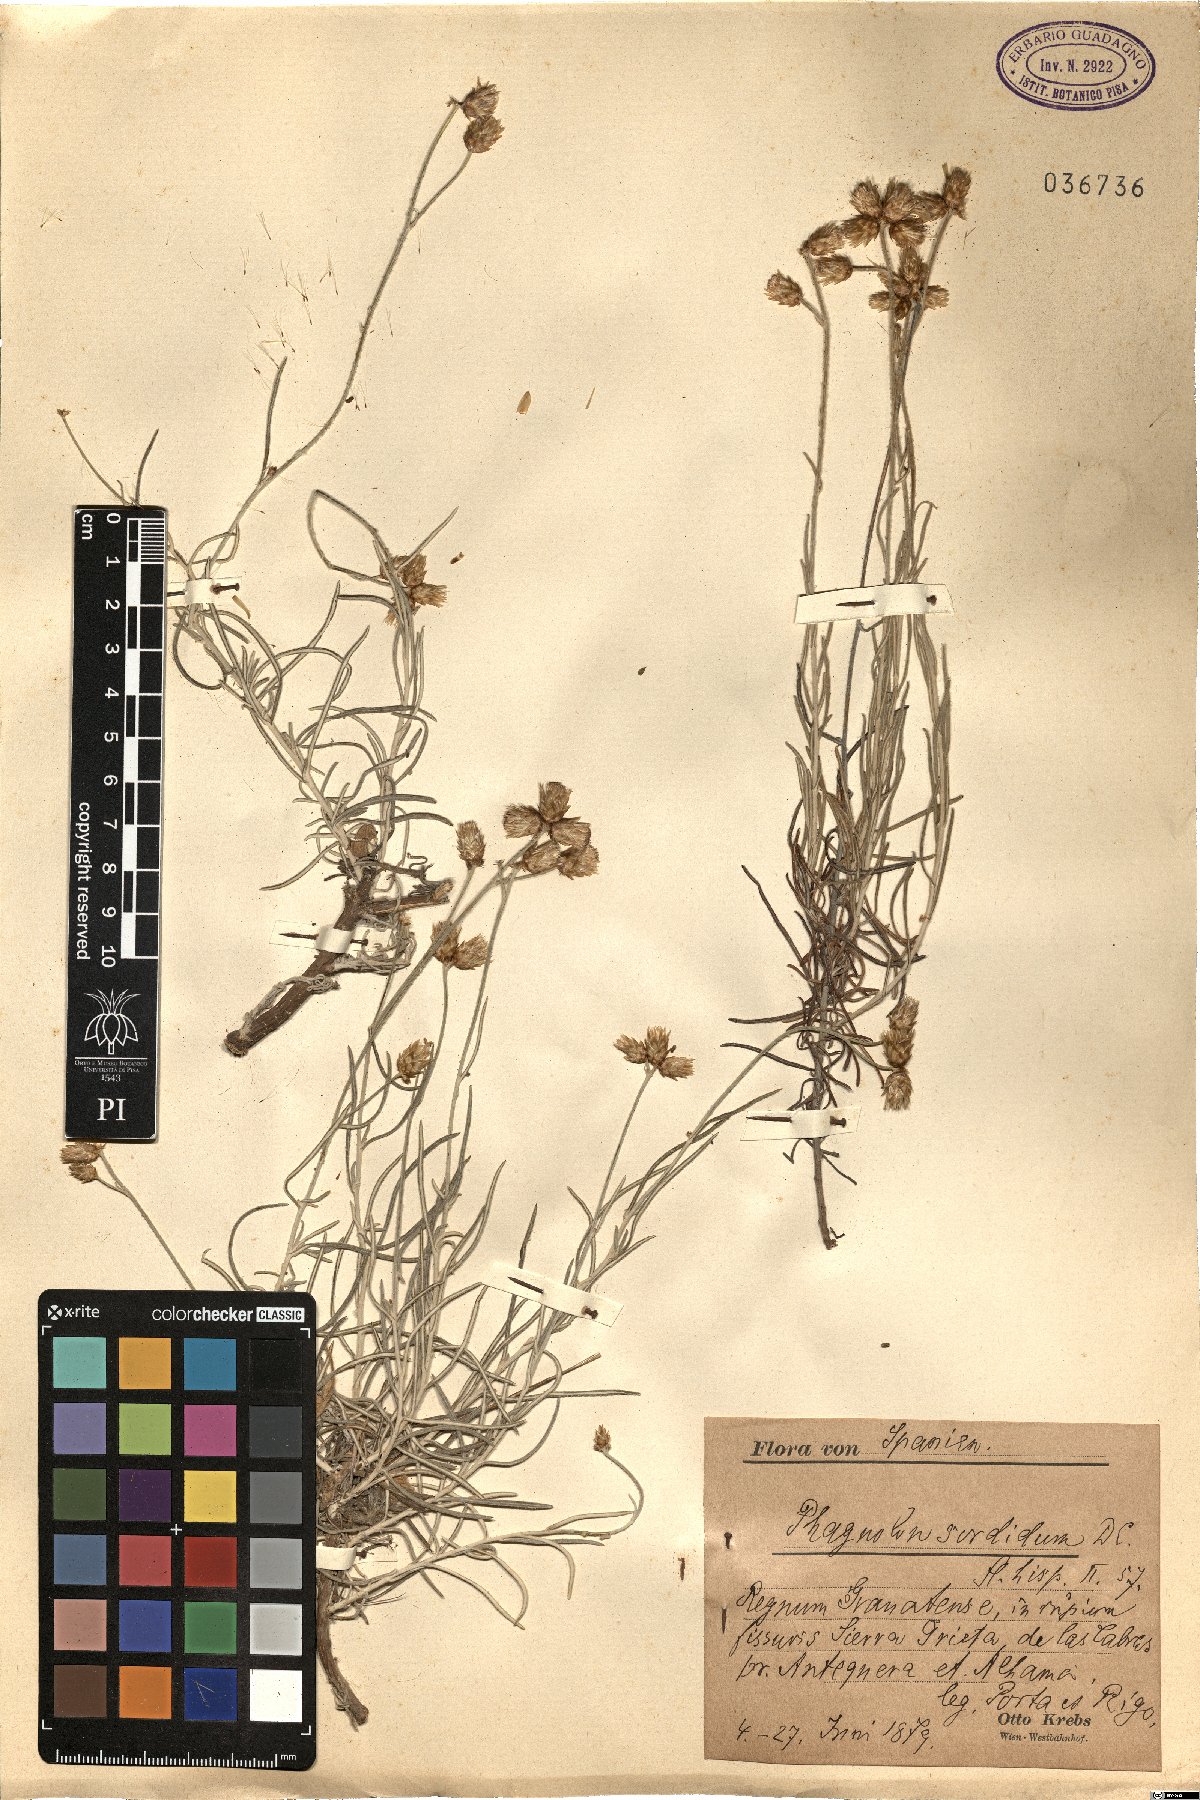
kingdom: Plantae
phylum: Tracheophyta
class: Magnoliopsida
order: Asterales
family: Asteraceae
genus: Phagnalon
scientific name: Phagnalon sordidum
